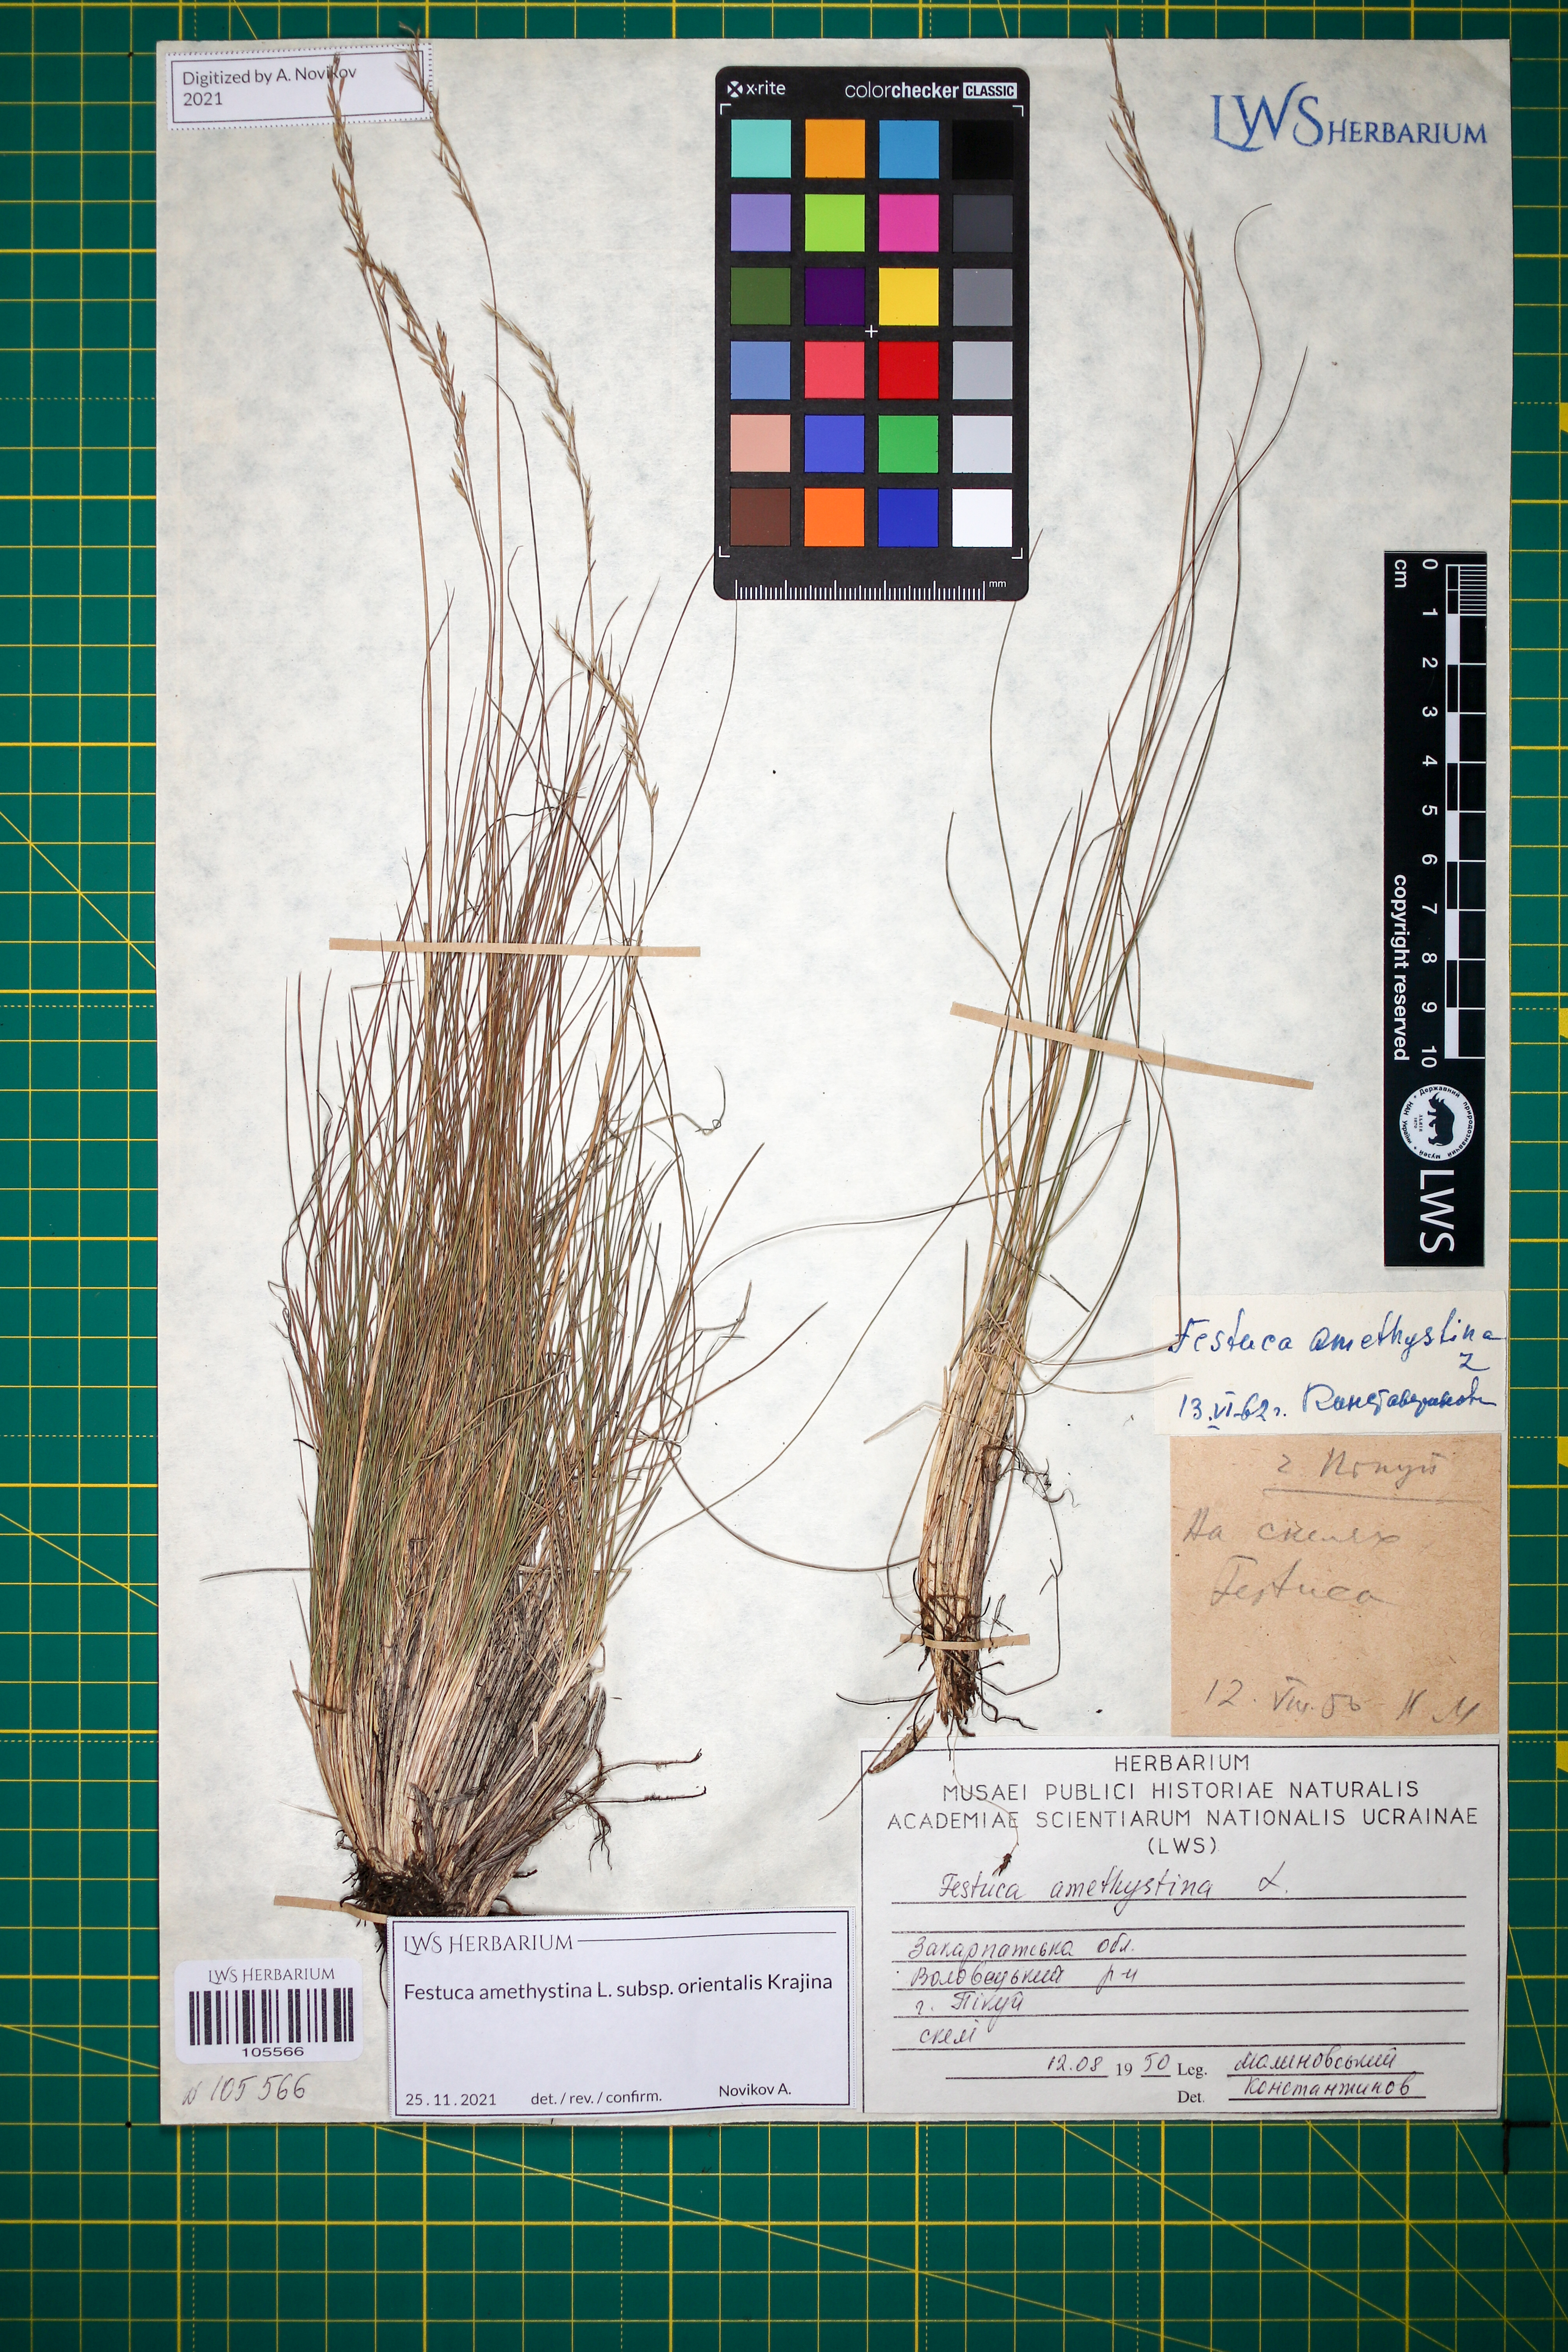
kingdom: Plantae
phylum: Tracheophyta
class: Liliopsida
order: Poales
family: Poaceae
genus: Festuca
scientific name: Festuca amethystina
